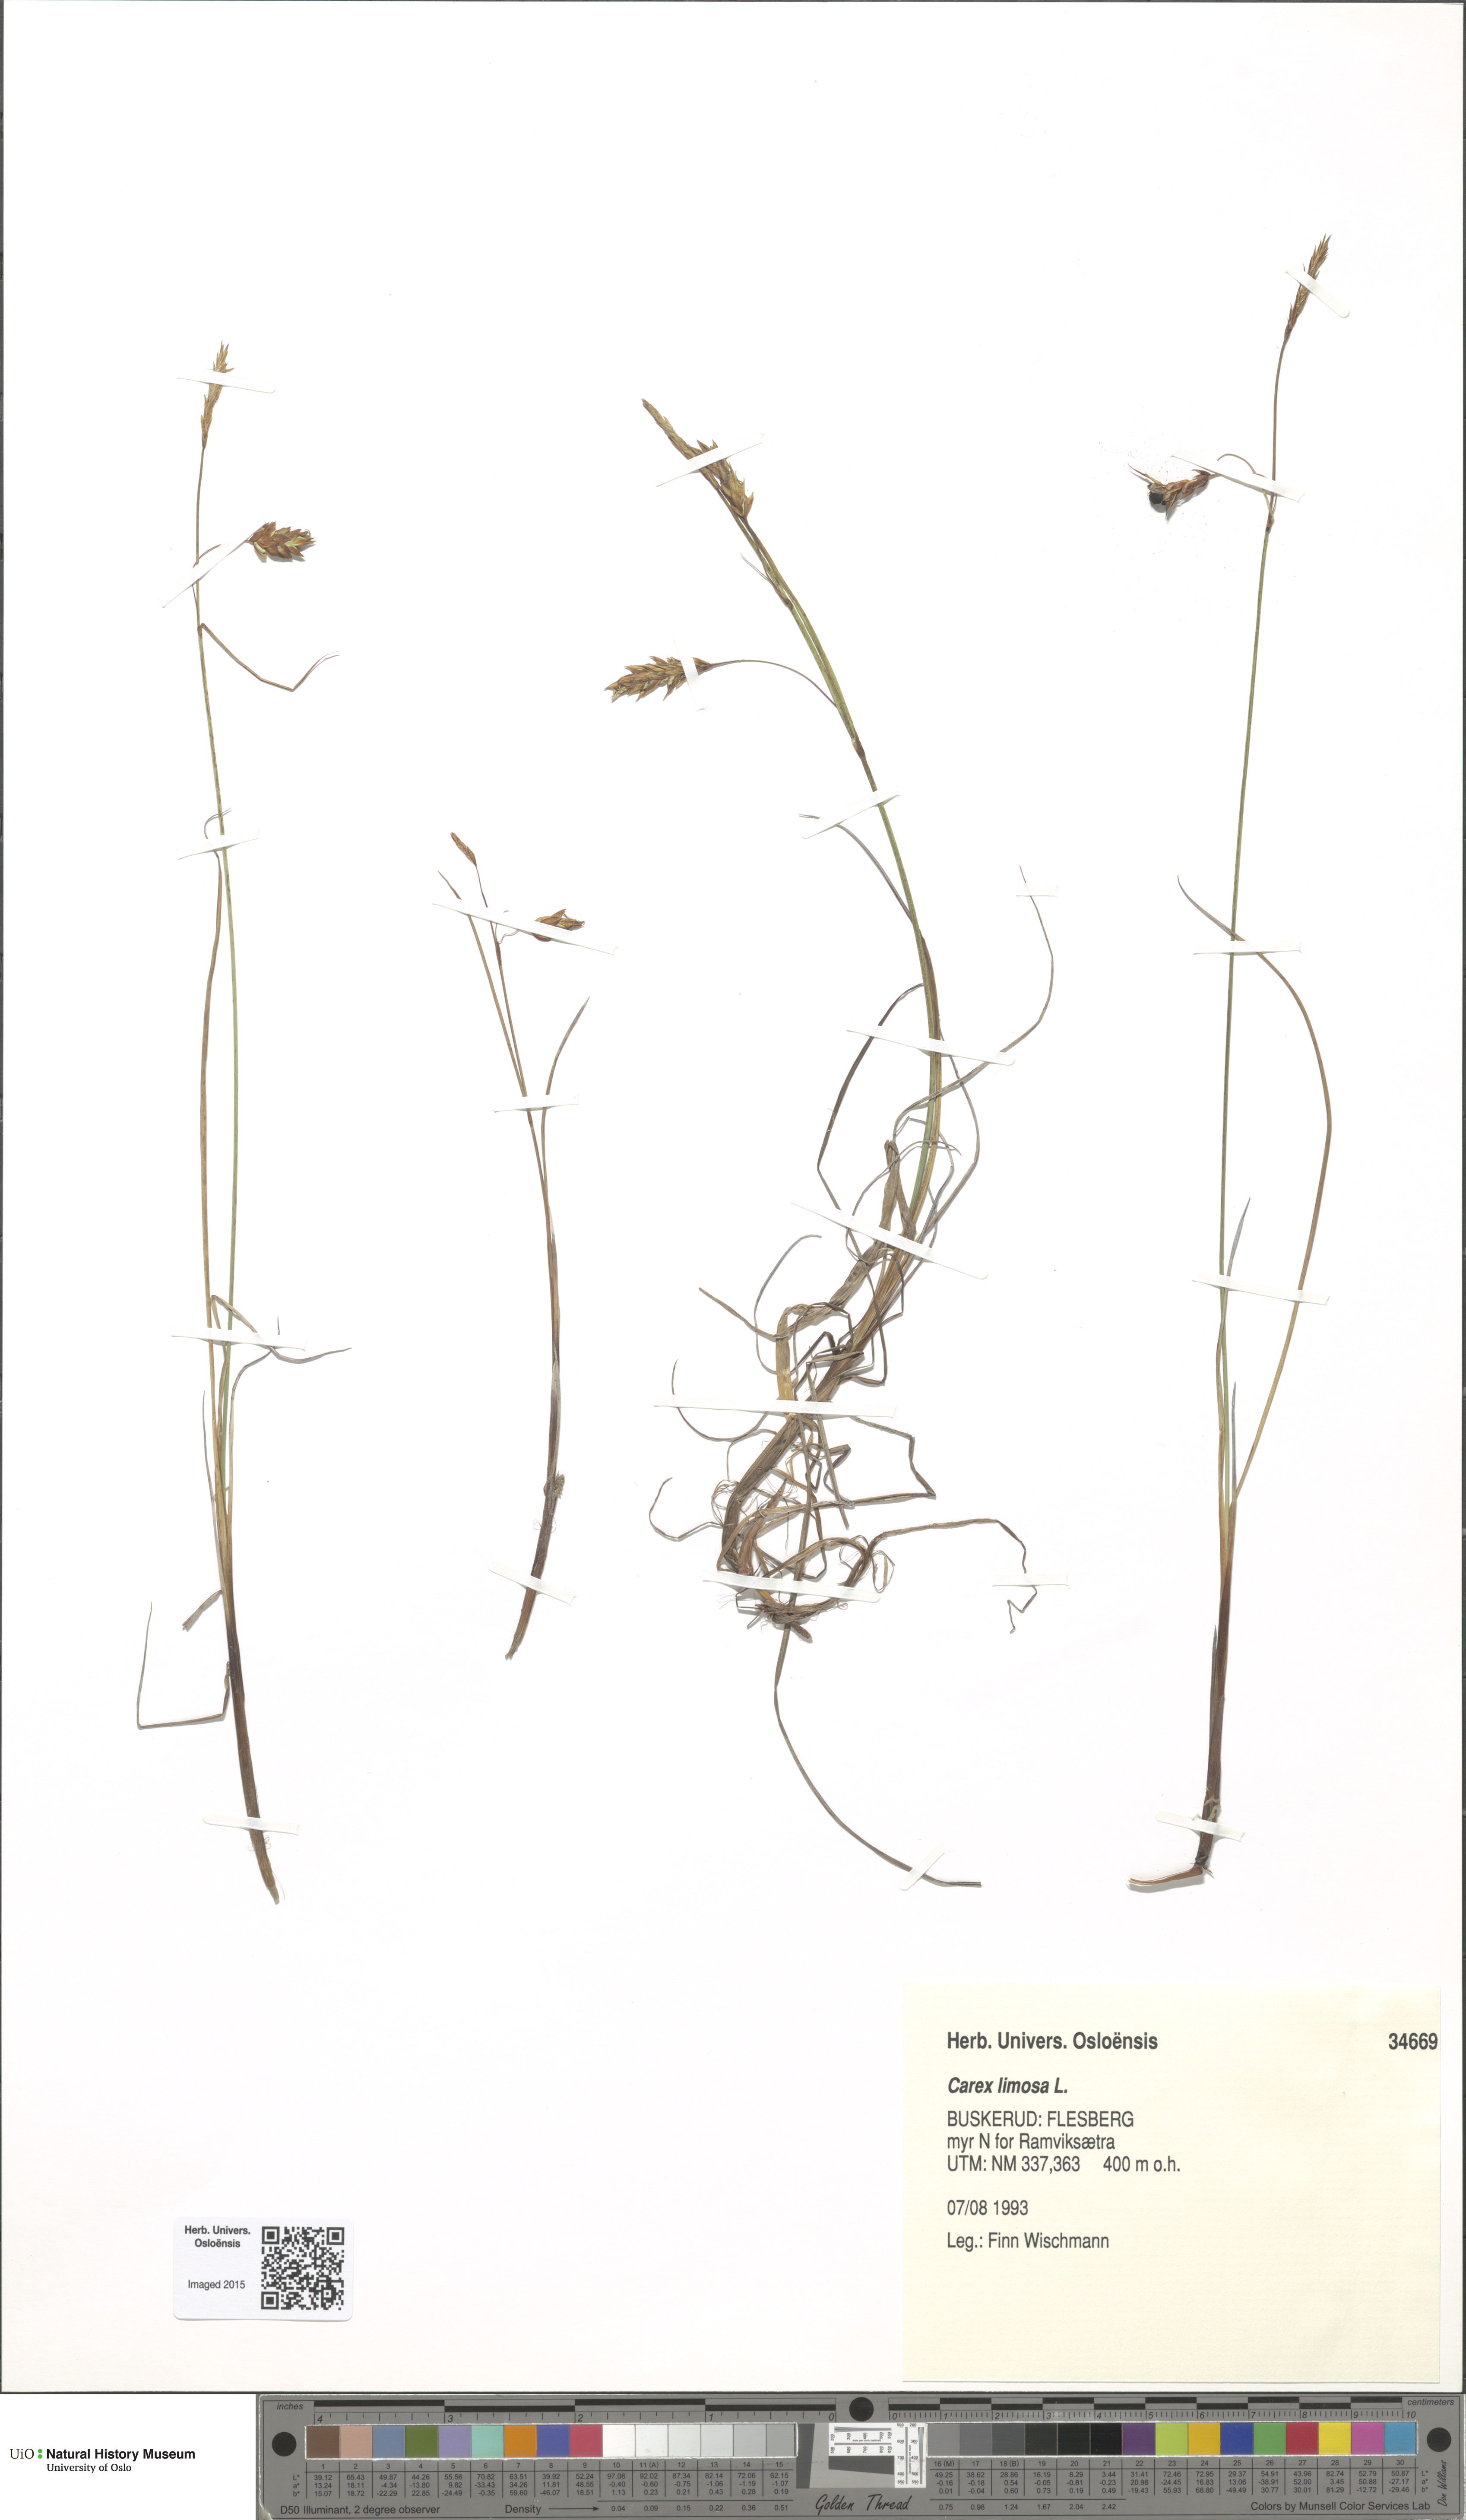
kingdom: Plantae
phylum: Tracheophyta
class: Liliopsida
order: Poales
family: Cyperaceae
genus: Carex
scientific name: Carex limosa
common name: Bog sedge
